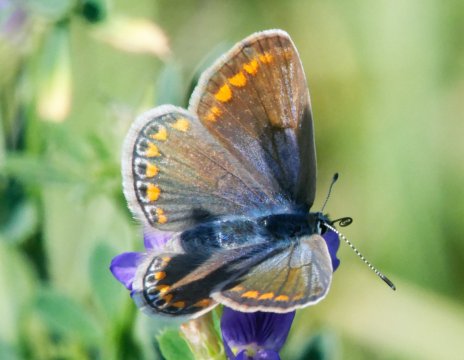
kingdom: Animalia
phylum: Arthropoda
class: Insecta
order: Lepidoptera
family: Lycaenidae
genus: Polyommatus
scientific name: Polyommatus icarus
